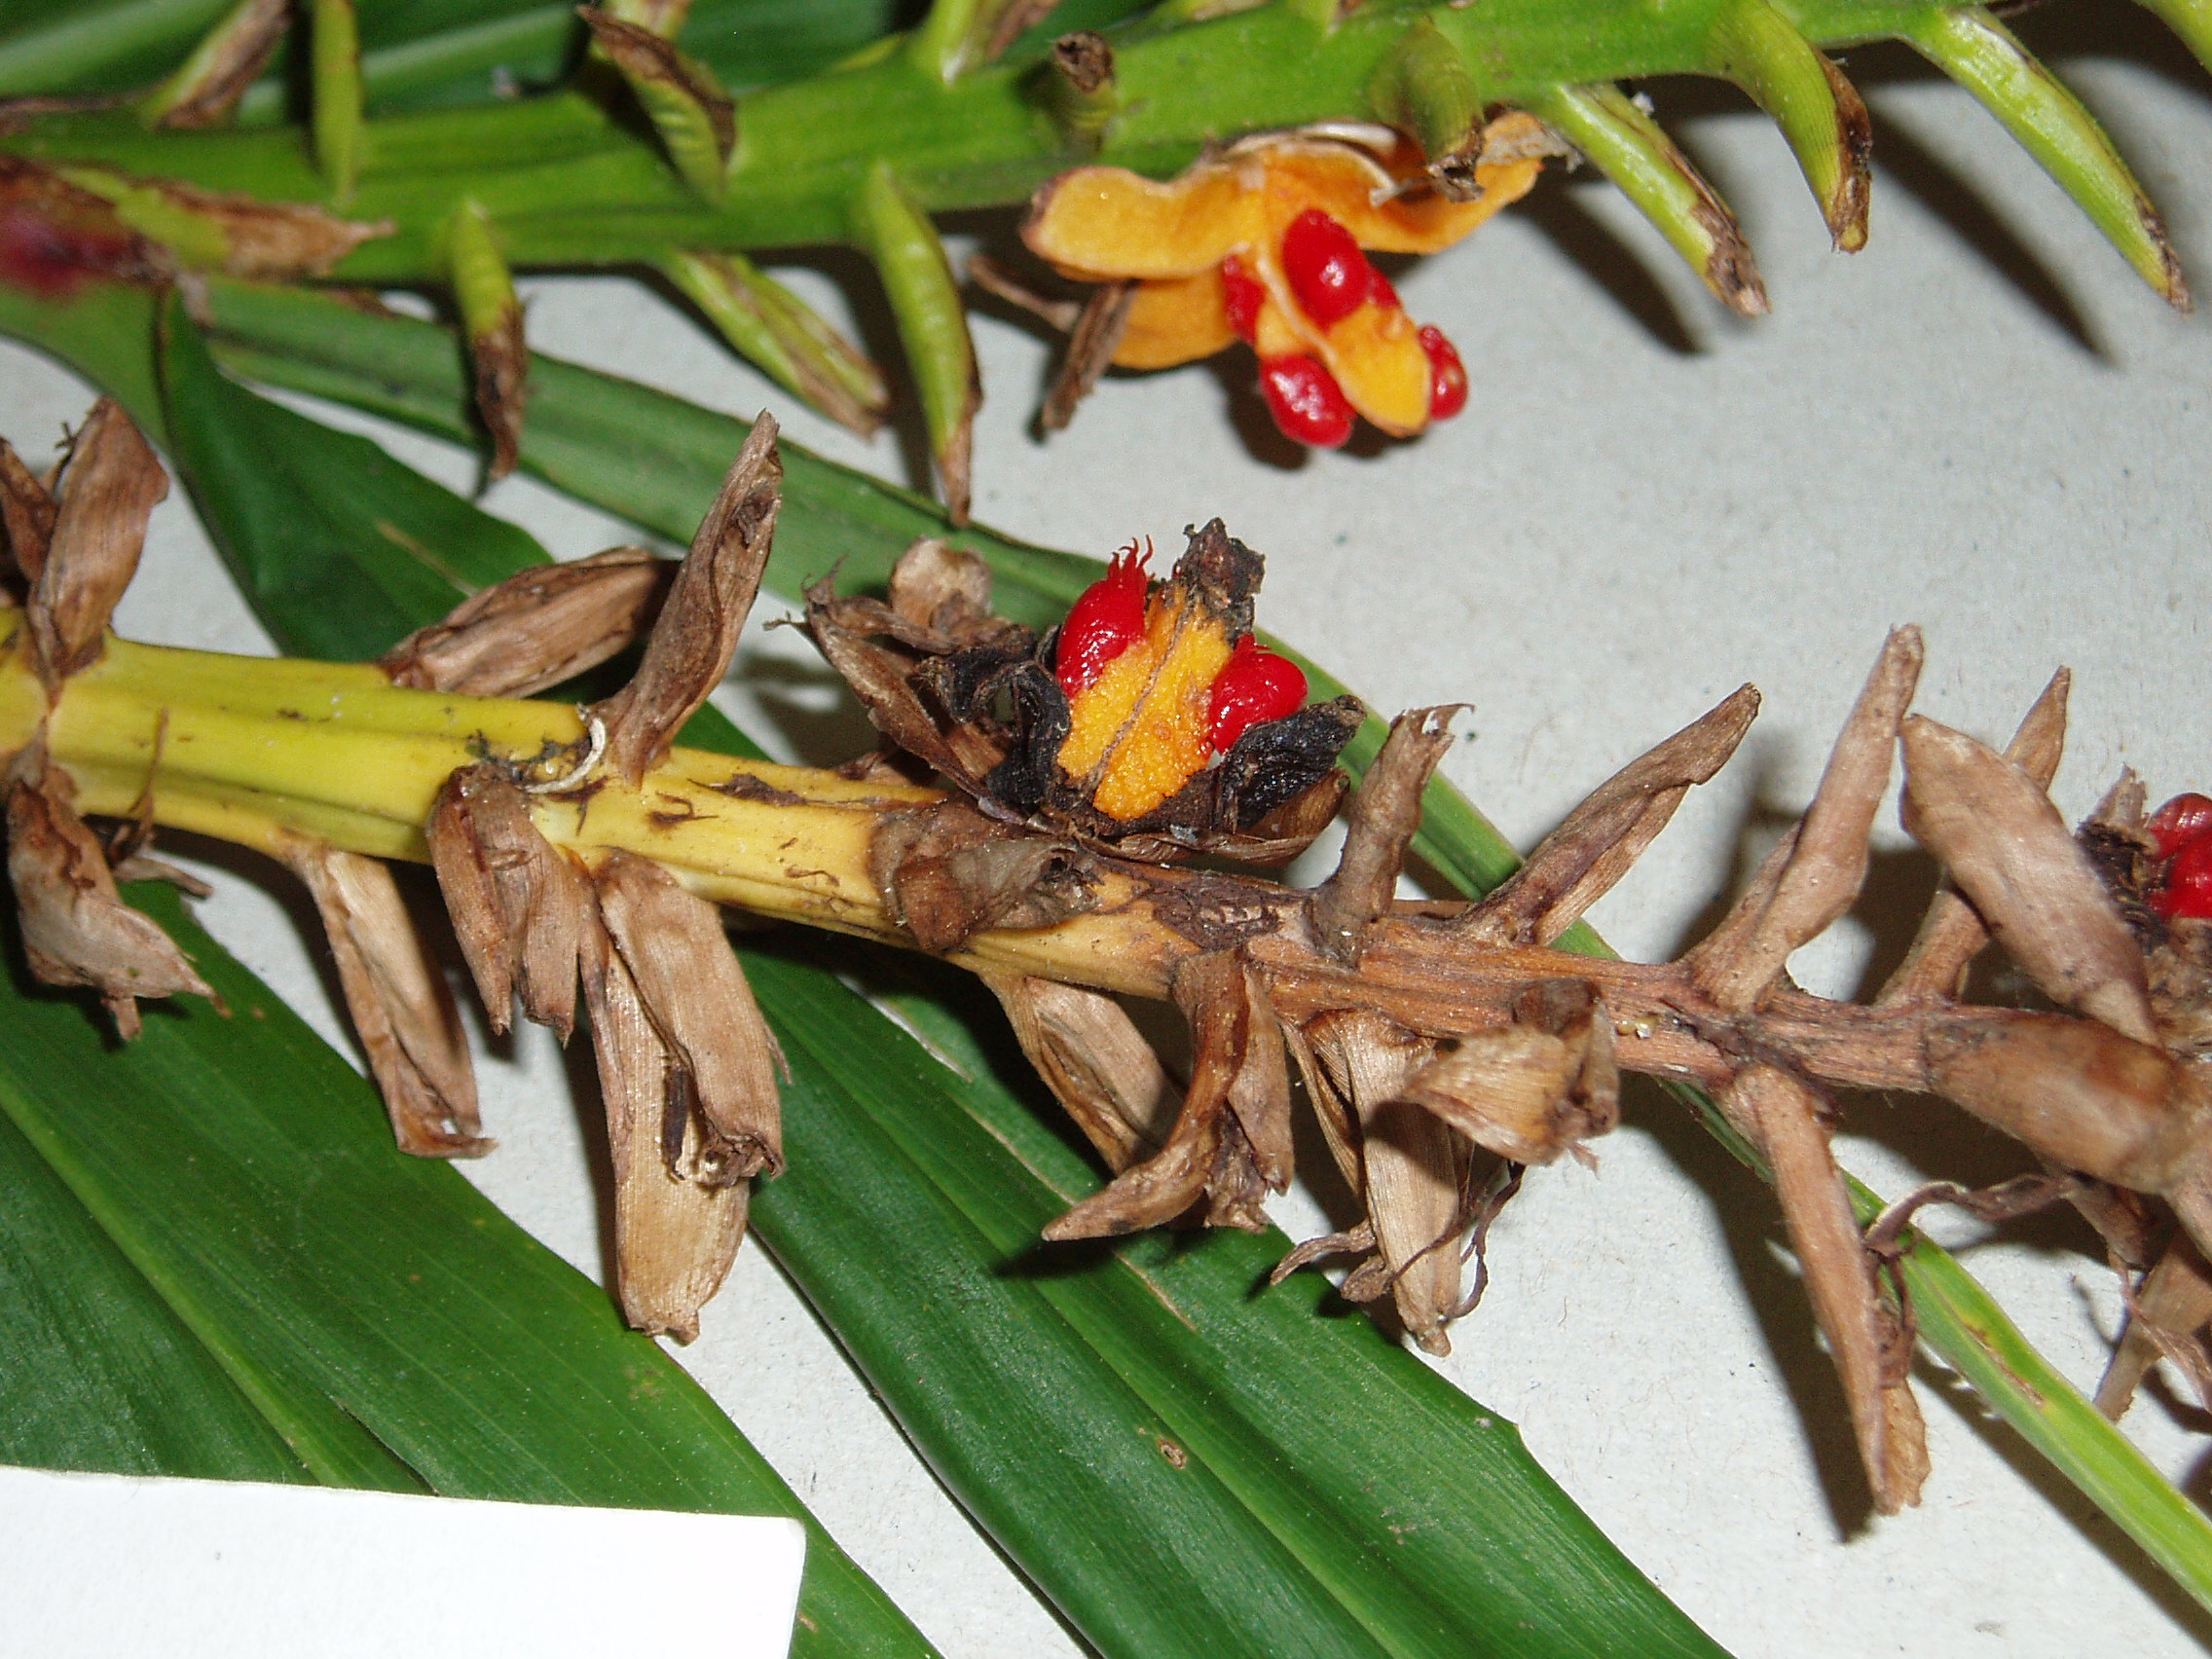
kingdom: Plantae
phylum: Tracheophyta
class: Liliopsida
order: Zingiberales
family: Zingiberaceae
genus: Hedychium
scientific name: Hedychium coccineum
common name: Red ginger-lily
